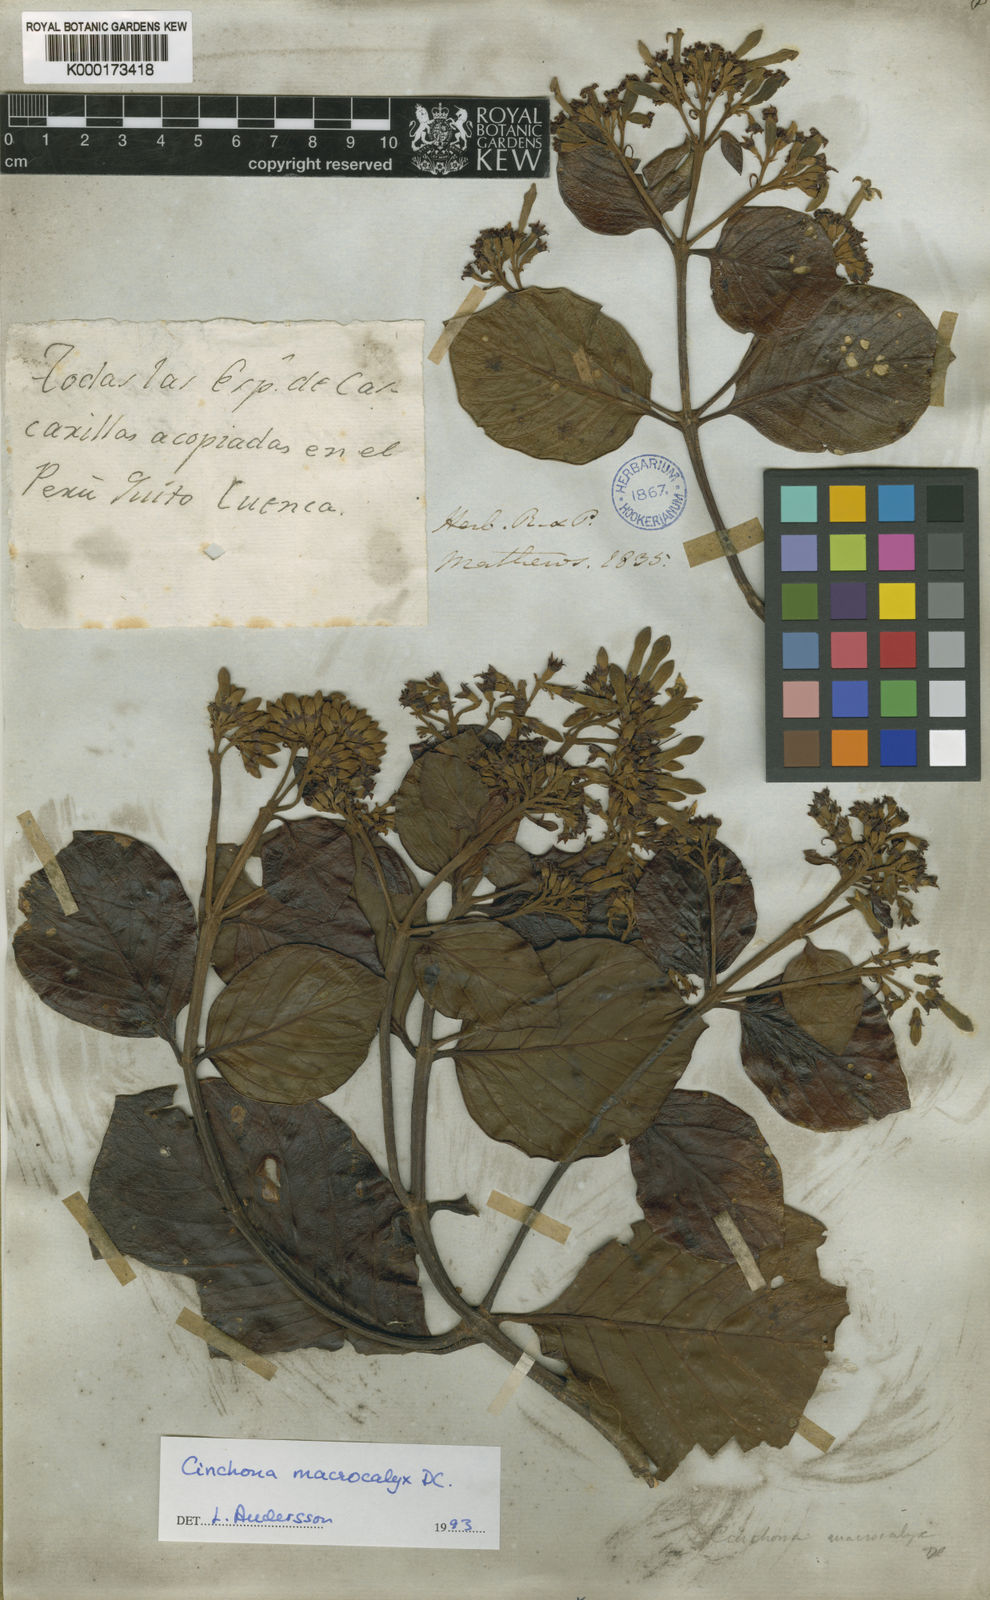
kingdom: Plantae
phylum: Tracheophyta
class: Magnoliopsida
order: Gentianales
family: Rubiaceae
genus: Cinchona
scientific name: Cinchona macrocalyx
